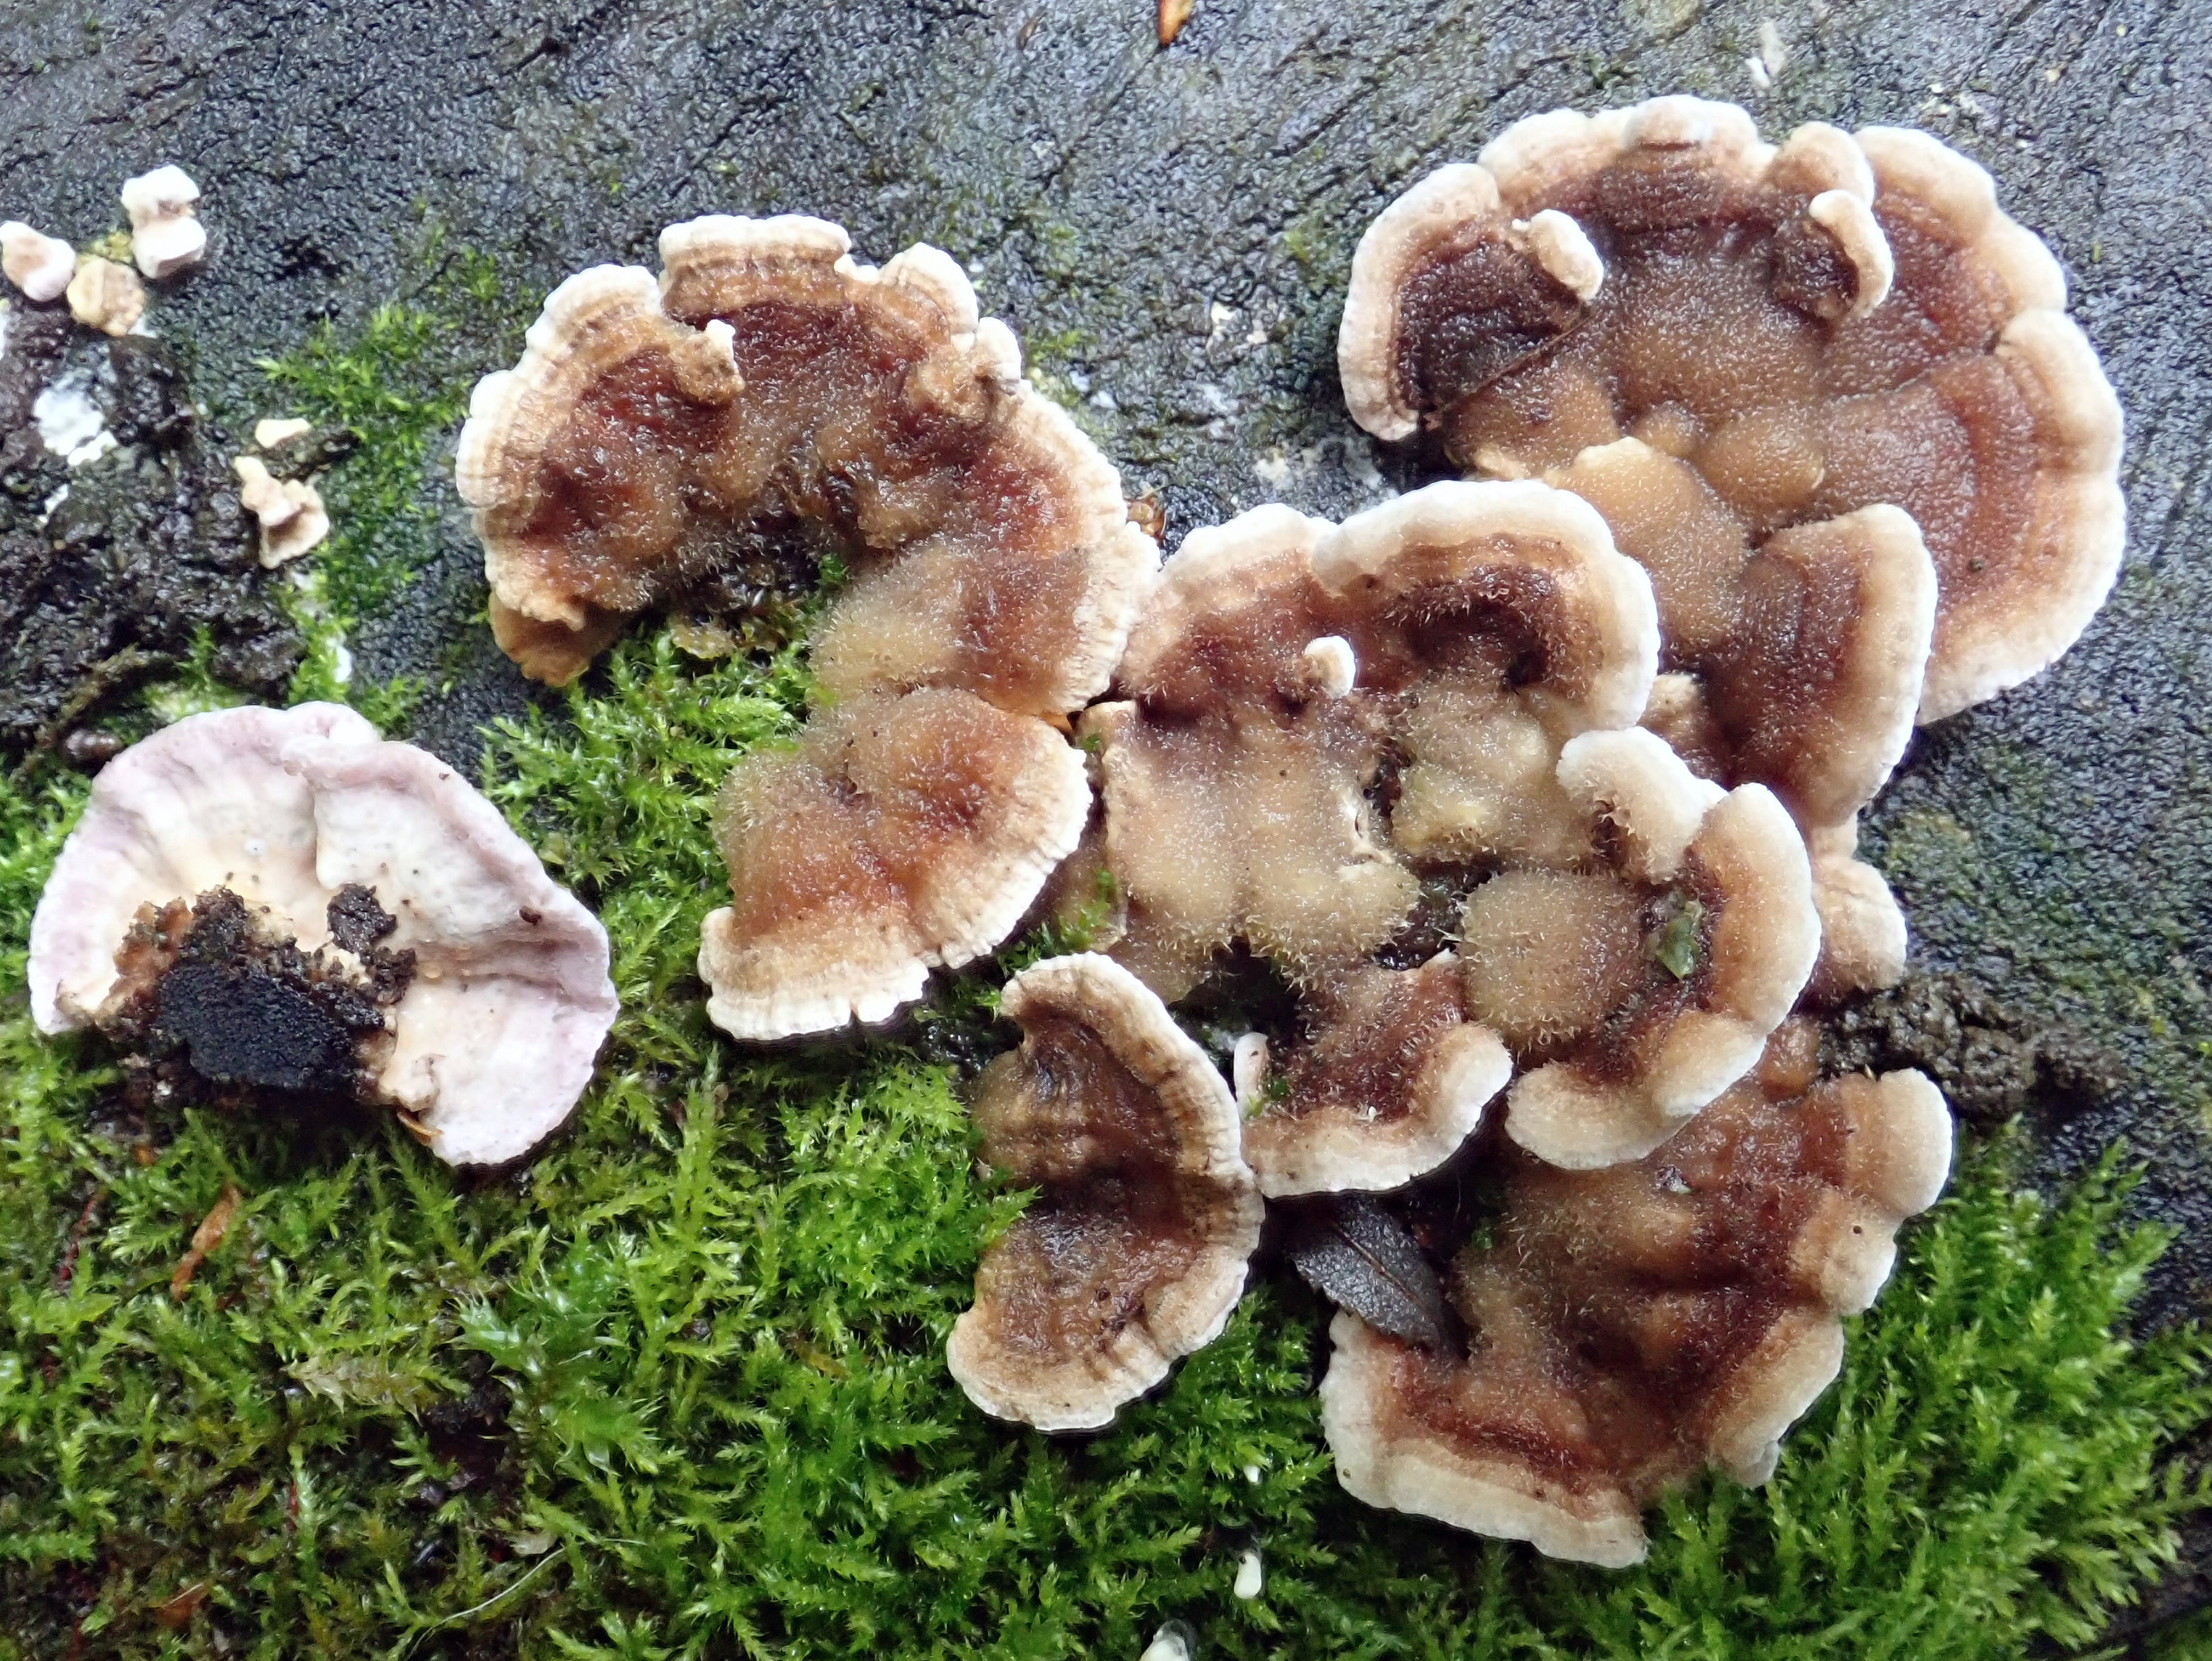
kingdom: Fungi
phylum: Basidiomycota
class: Agaricomycetes
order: Agaricales
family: Cyphellaceae
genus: Chondrostereum
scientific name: Chondrostereum purpureum
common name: Silver leaf disease
